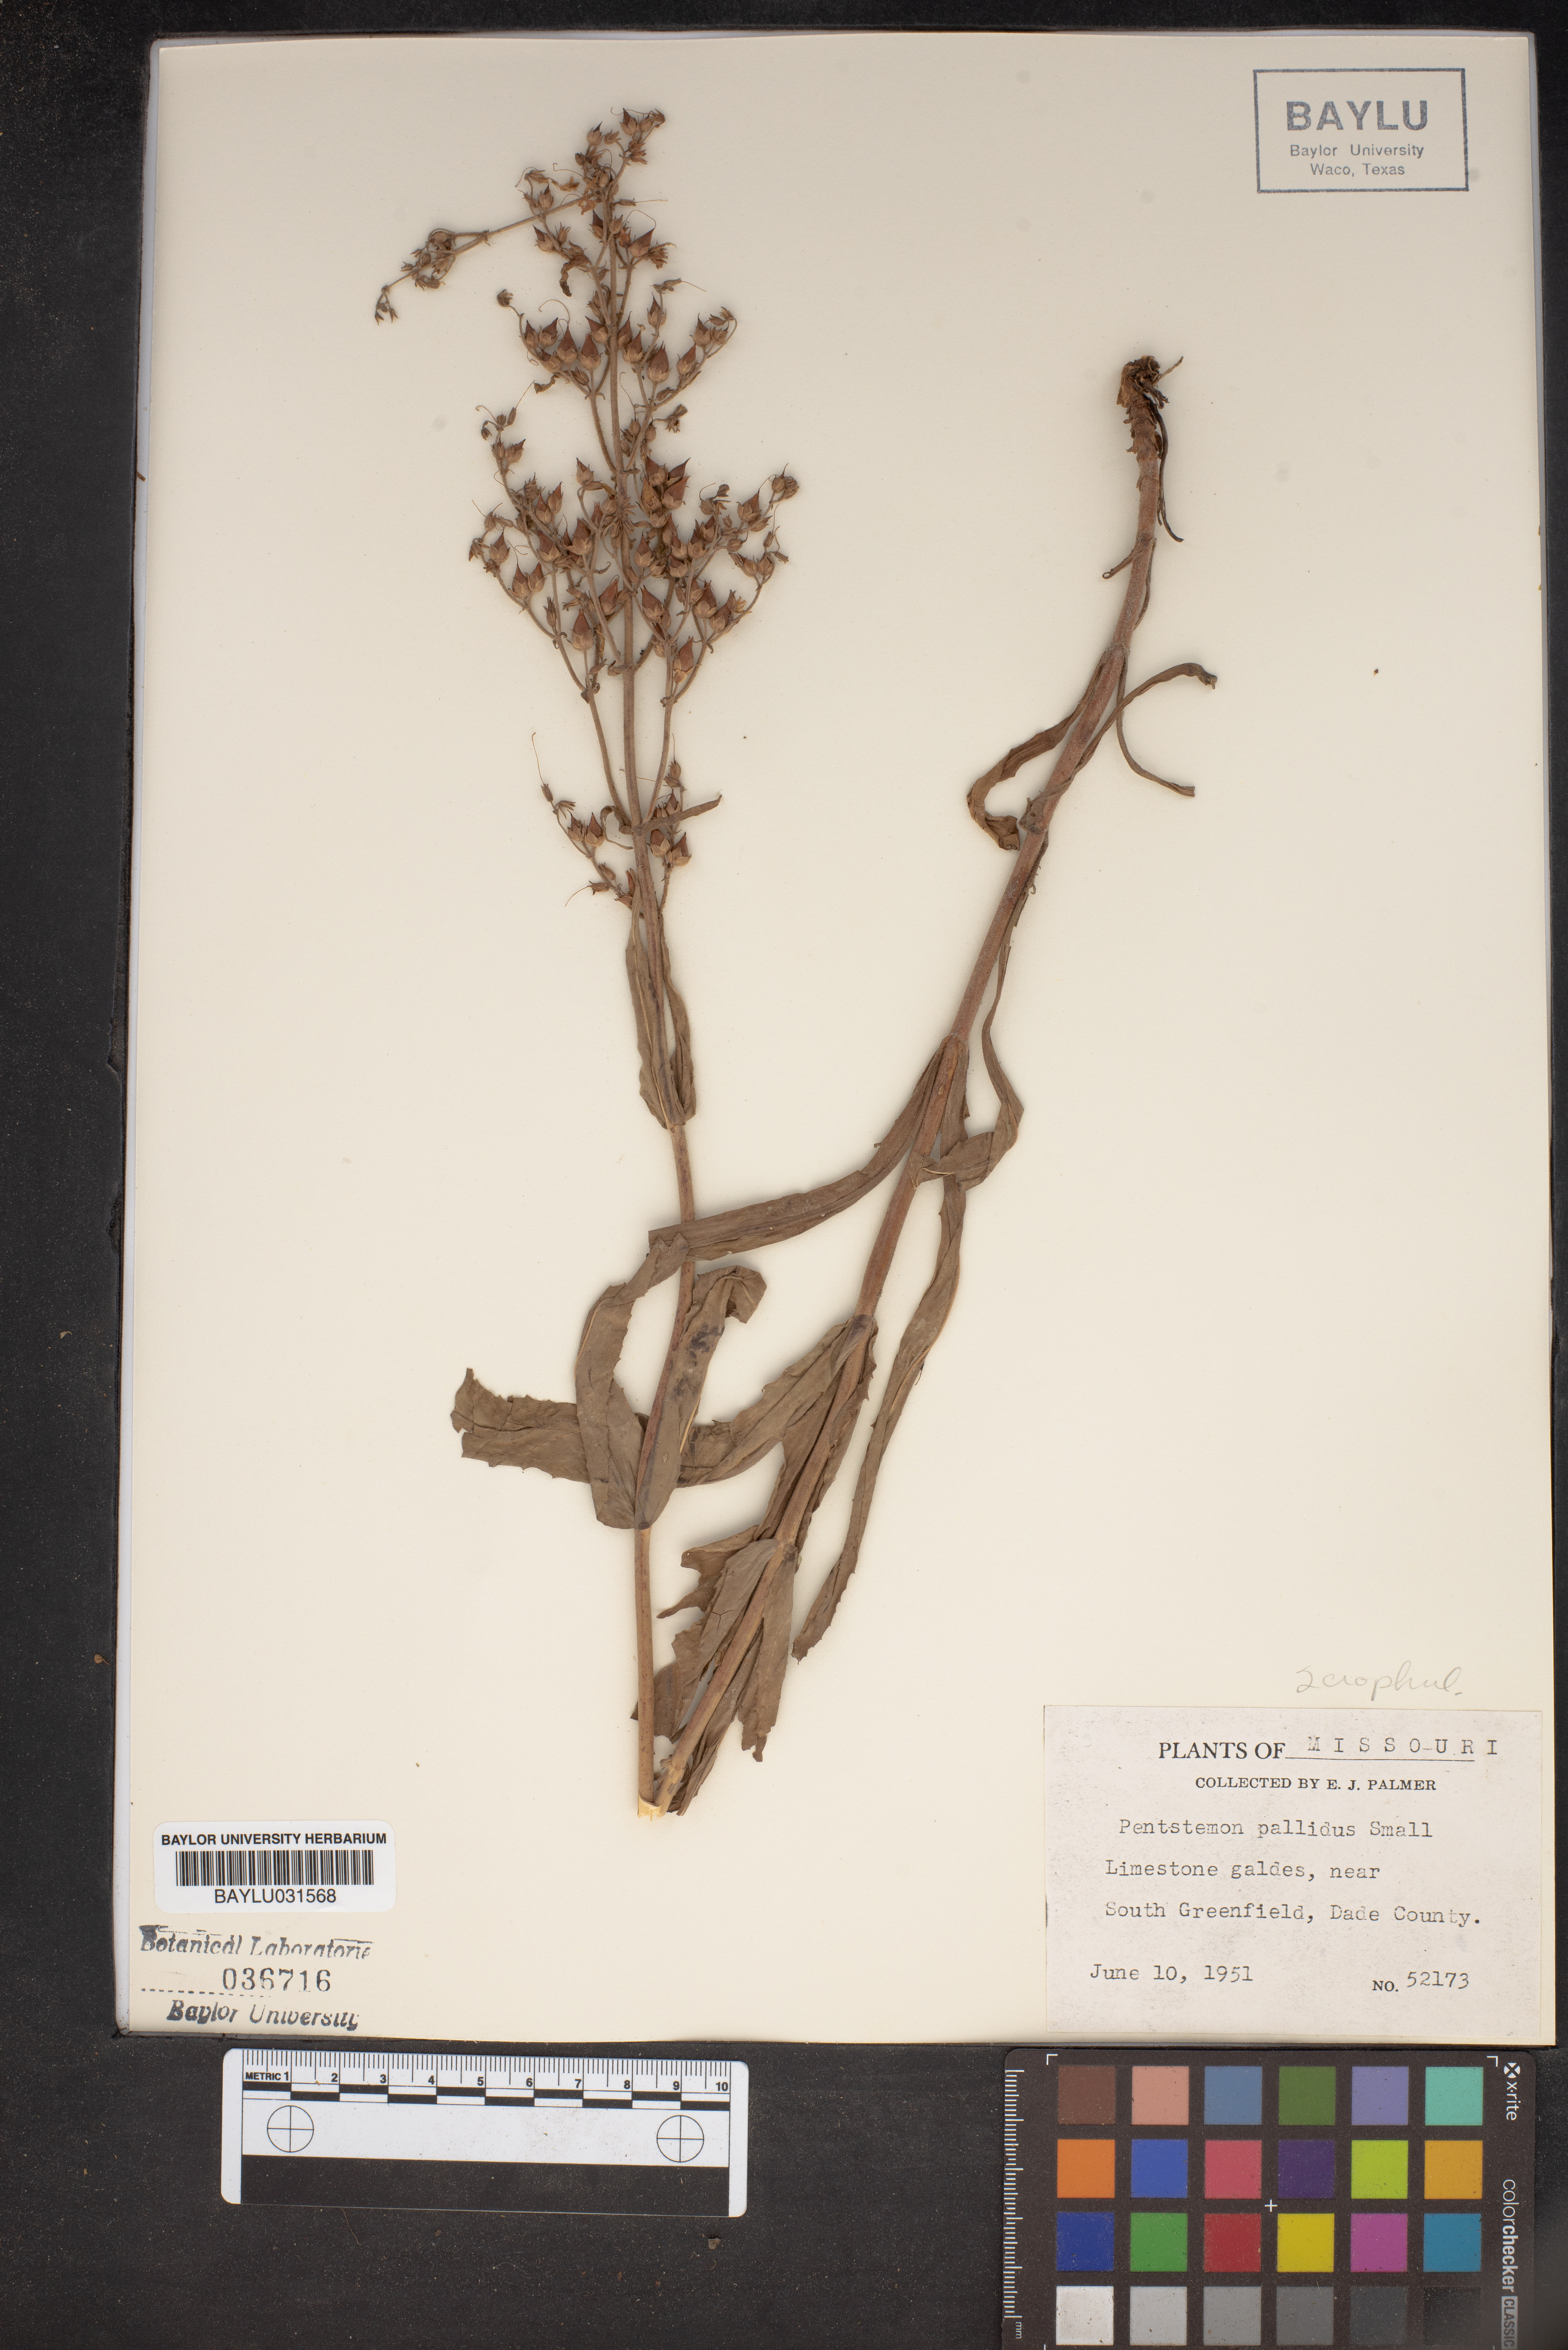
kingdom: Plantae
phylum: Tracheophyta
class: Magnoliopsida
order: Lamiales
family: Plantaginaceae
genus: Penstemon
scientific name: Penstemon pallidus
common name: Pale beardtongue
